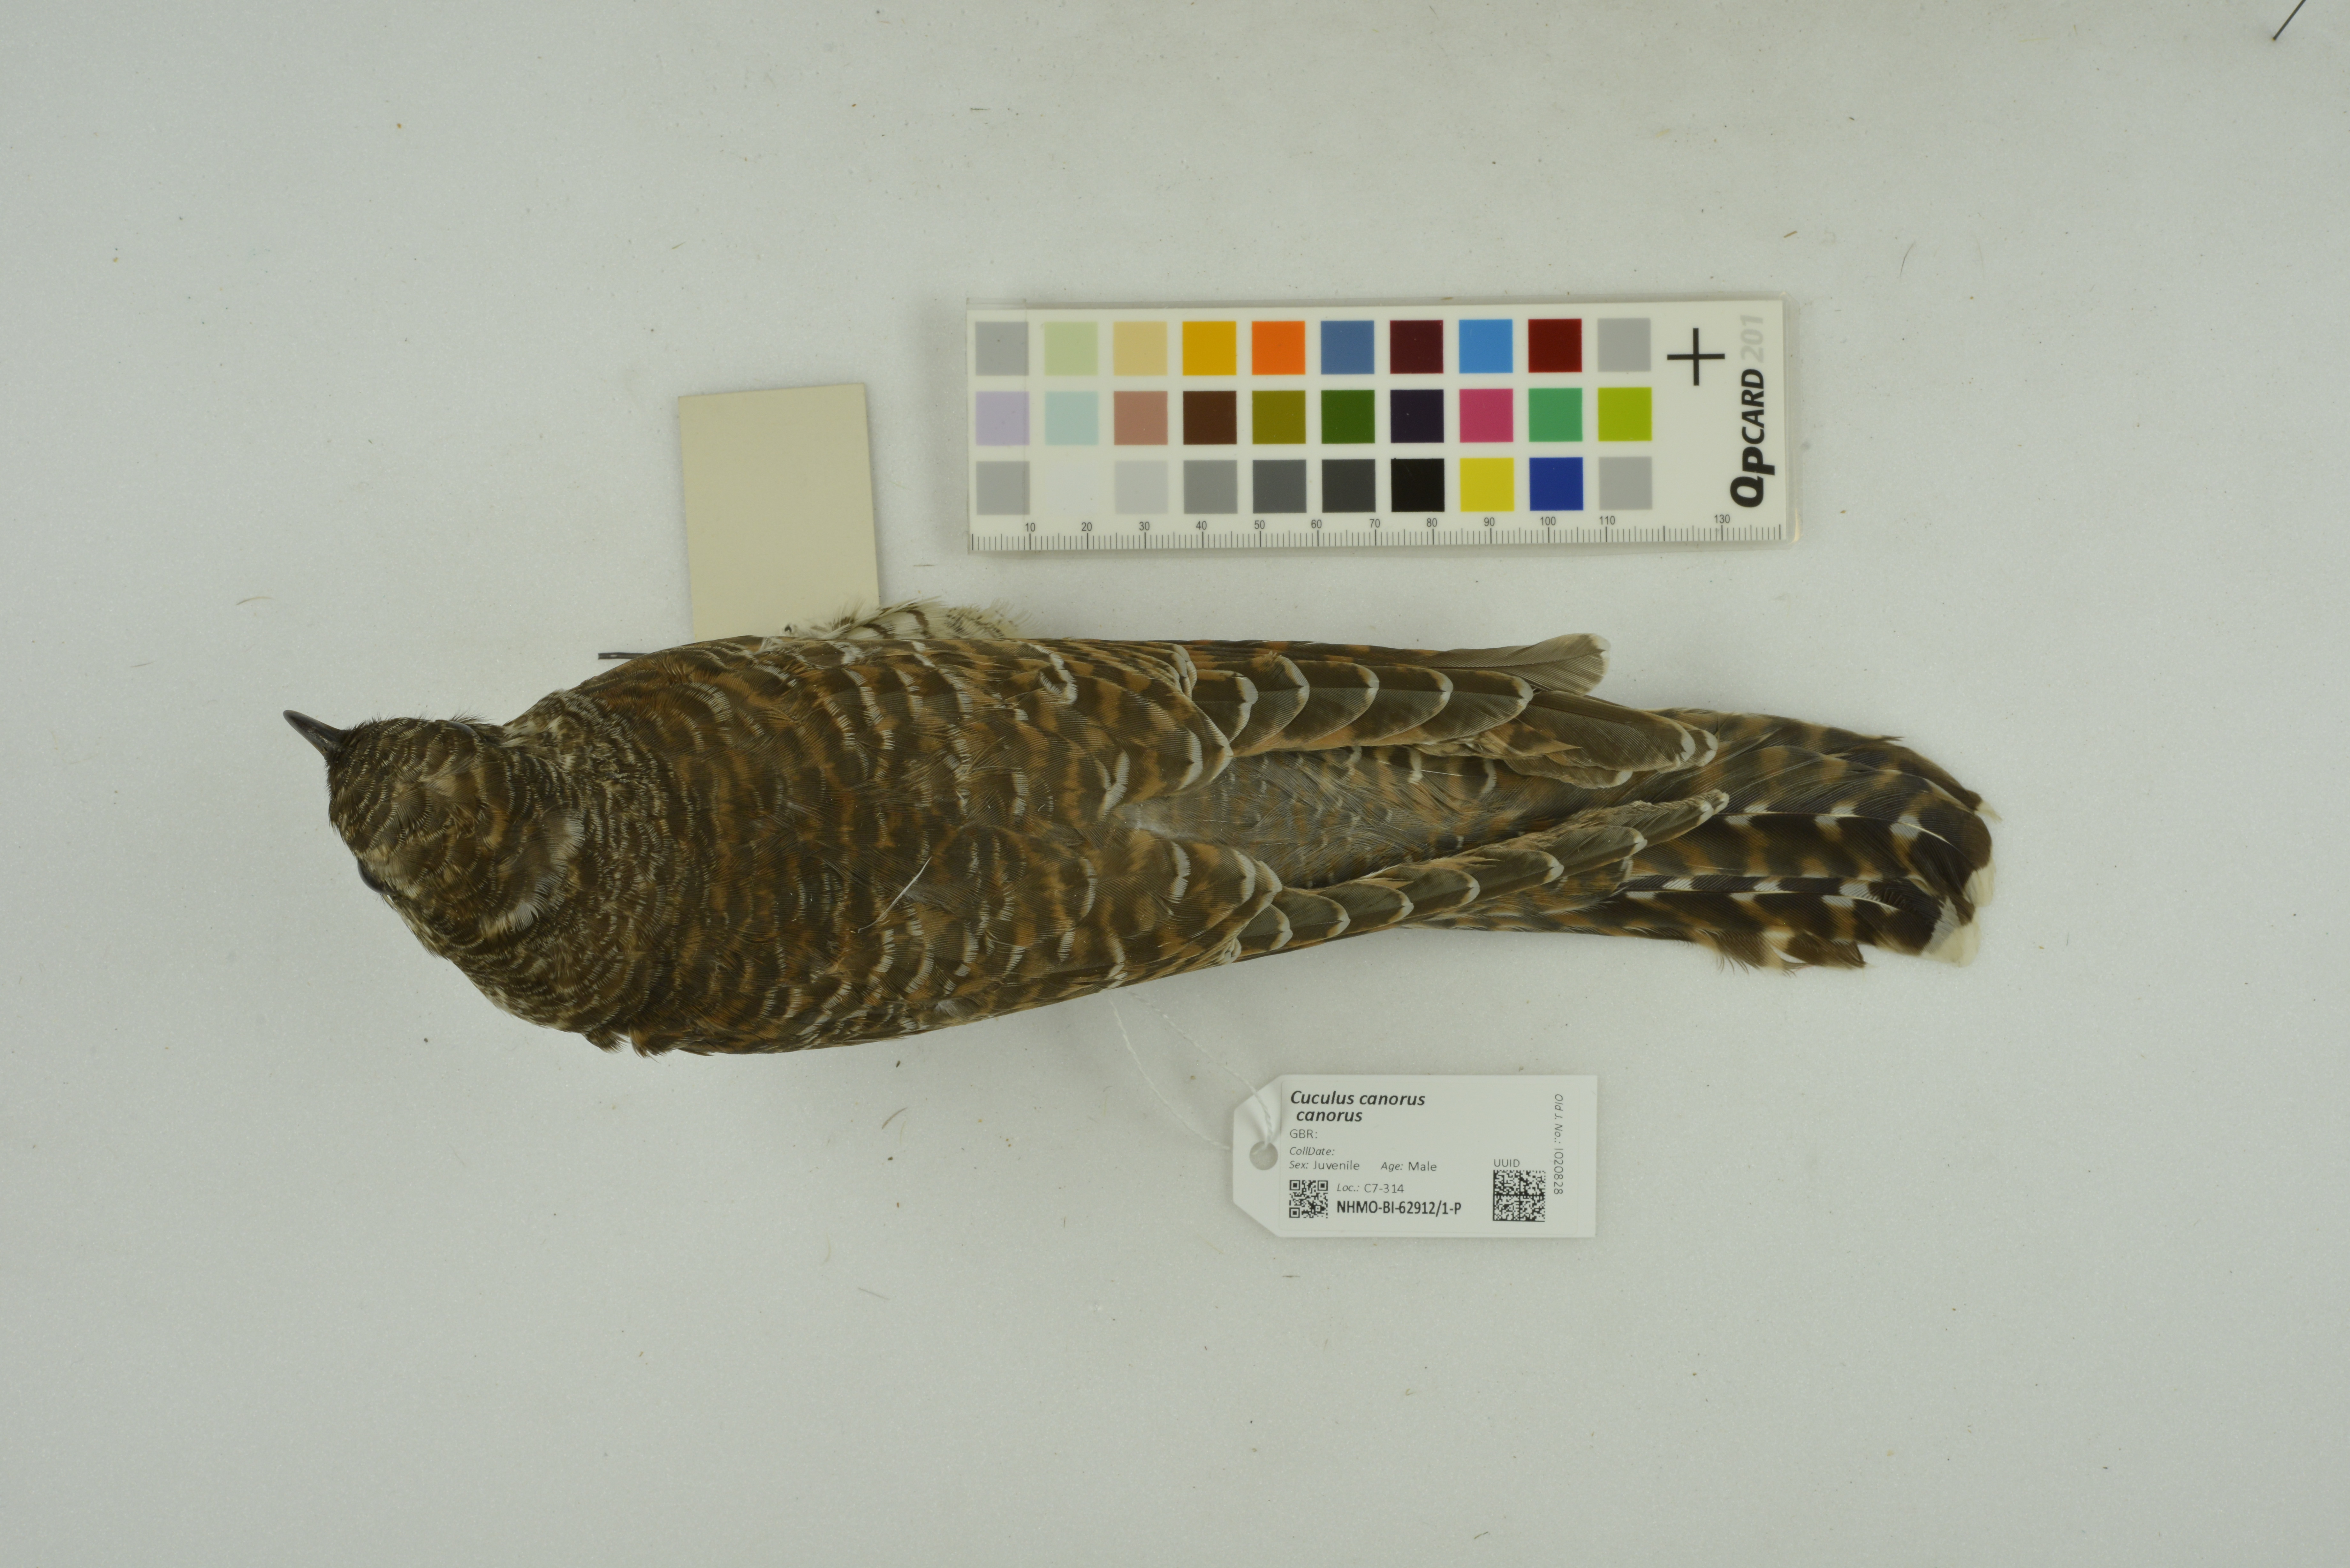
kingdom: Animalia
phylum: Chordata
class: Aves
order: Cuculiformes
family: Cuculidae
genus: Cuculus
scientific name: Cuculus canorus
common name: Common cuckoo
